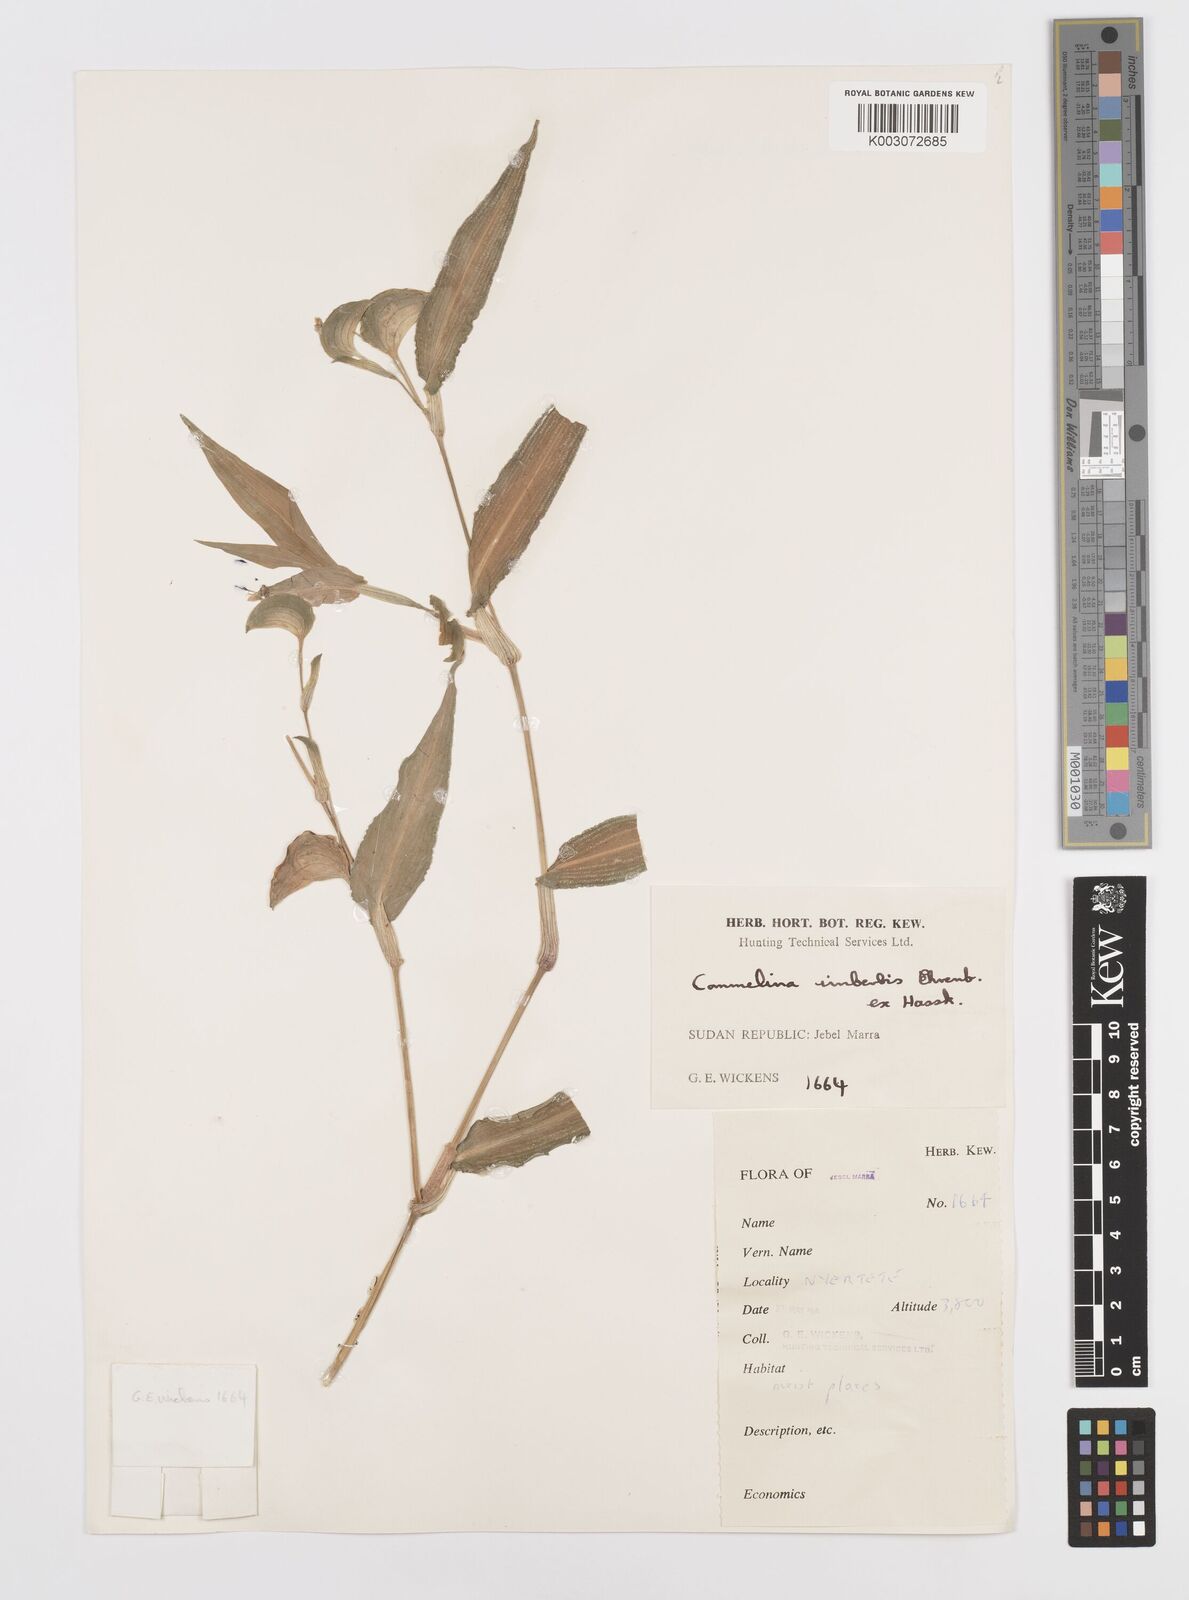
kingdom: Plantae
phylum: Tracheophyta
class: Liliopsida
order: Commelinales
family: Commelinaceae
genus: Commelina
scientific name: Commelina imberbis
